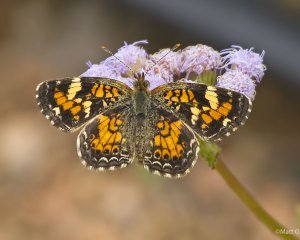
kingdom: Animalia
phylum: Arthropoda
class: Insecta
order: Lepidoptera
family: Nymphalidae
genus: Phyciodes
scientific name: Phyciodes phaon
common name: Phaon Crescent
